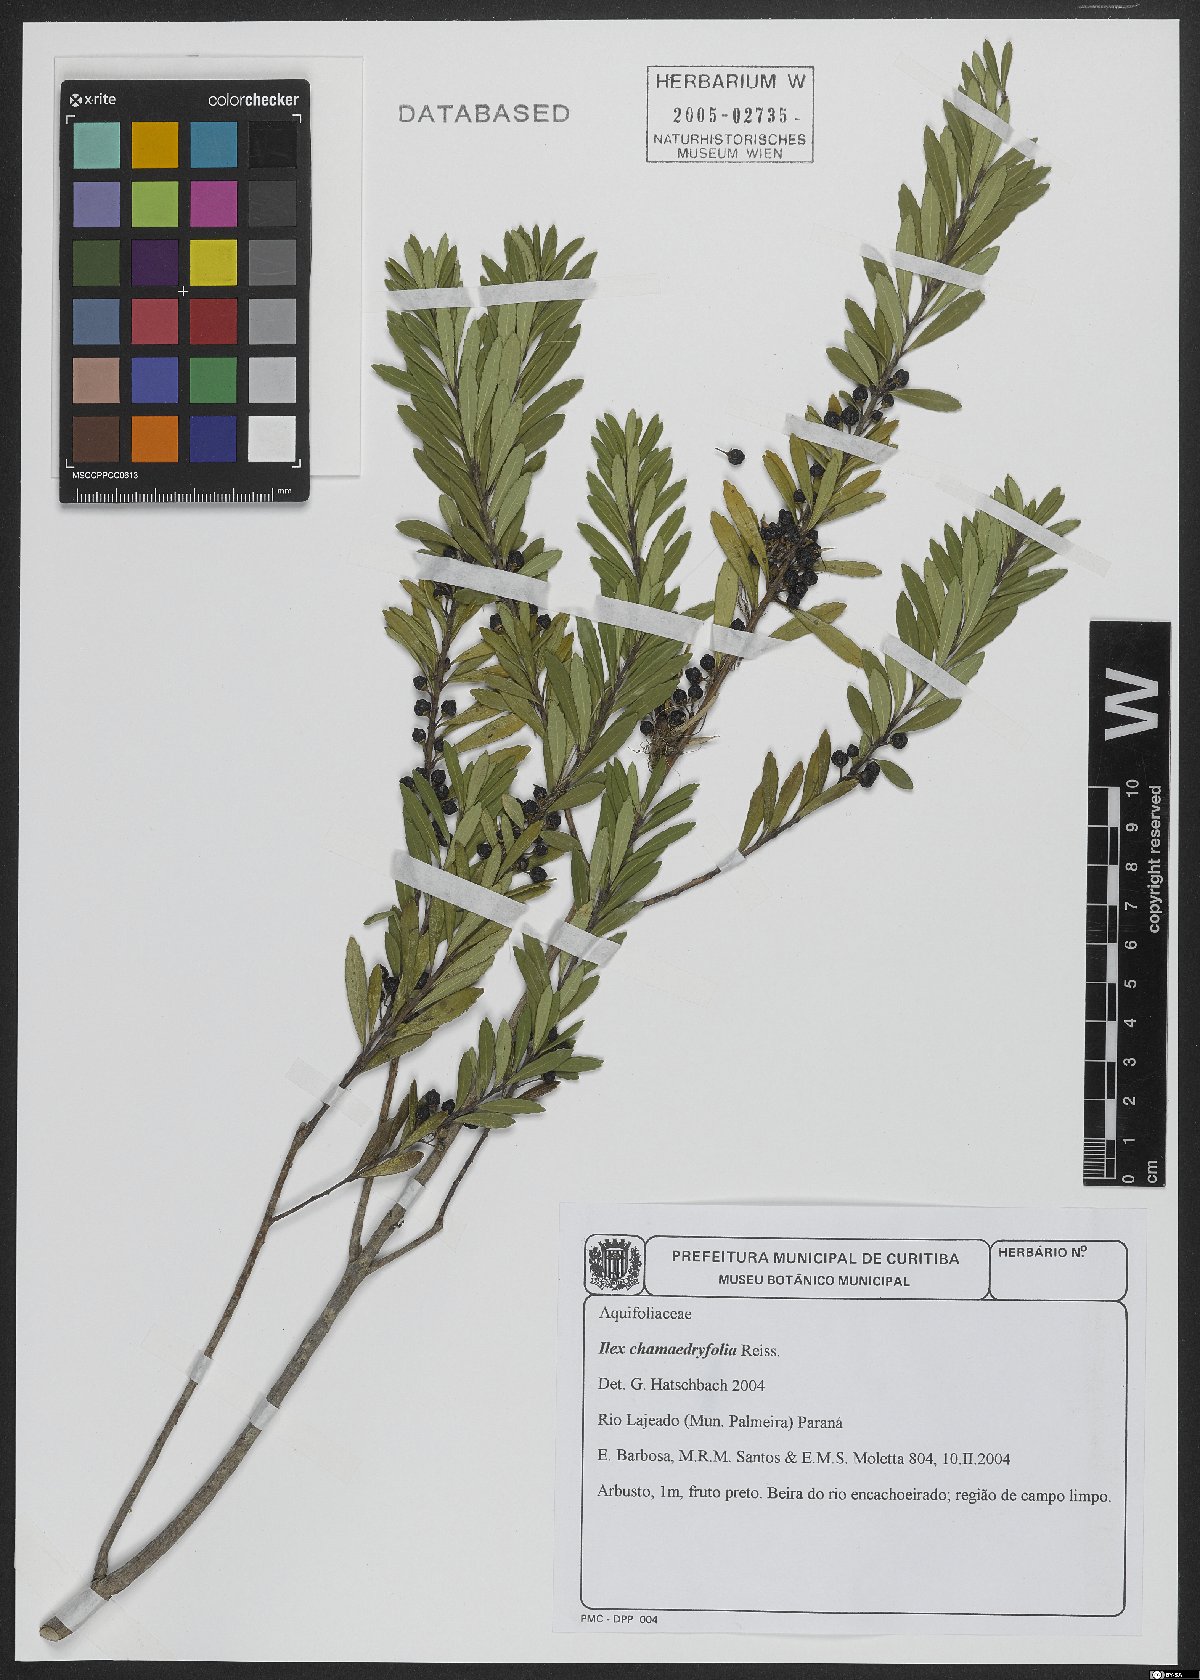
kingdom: Plantae
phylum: Tracheophyta
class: Magnoliopsida
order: Aquifoliales
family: Aquifoliaceae
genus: Ilex
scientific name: Ilex chamaedryfolia
